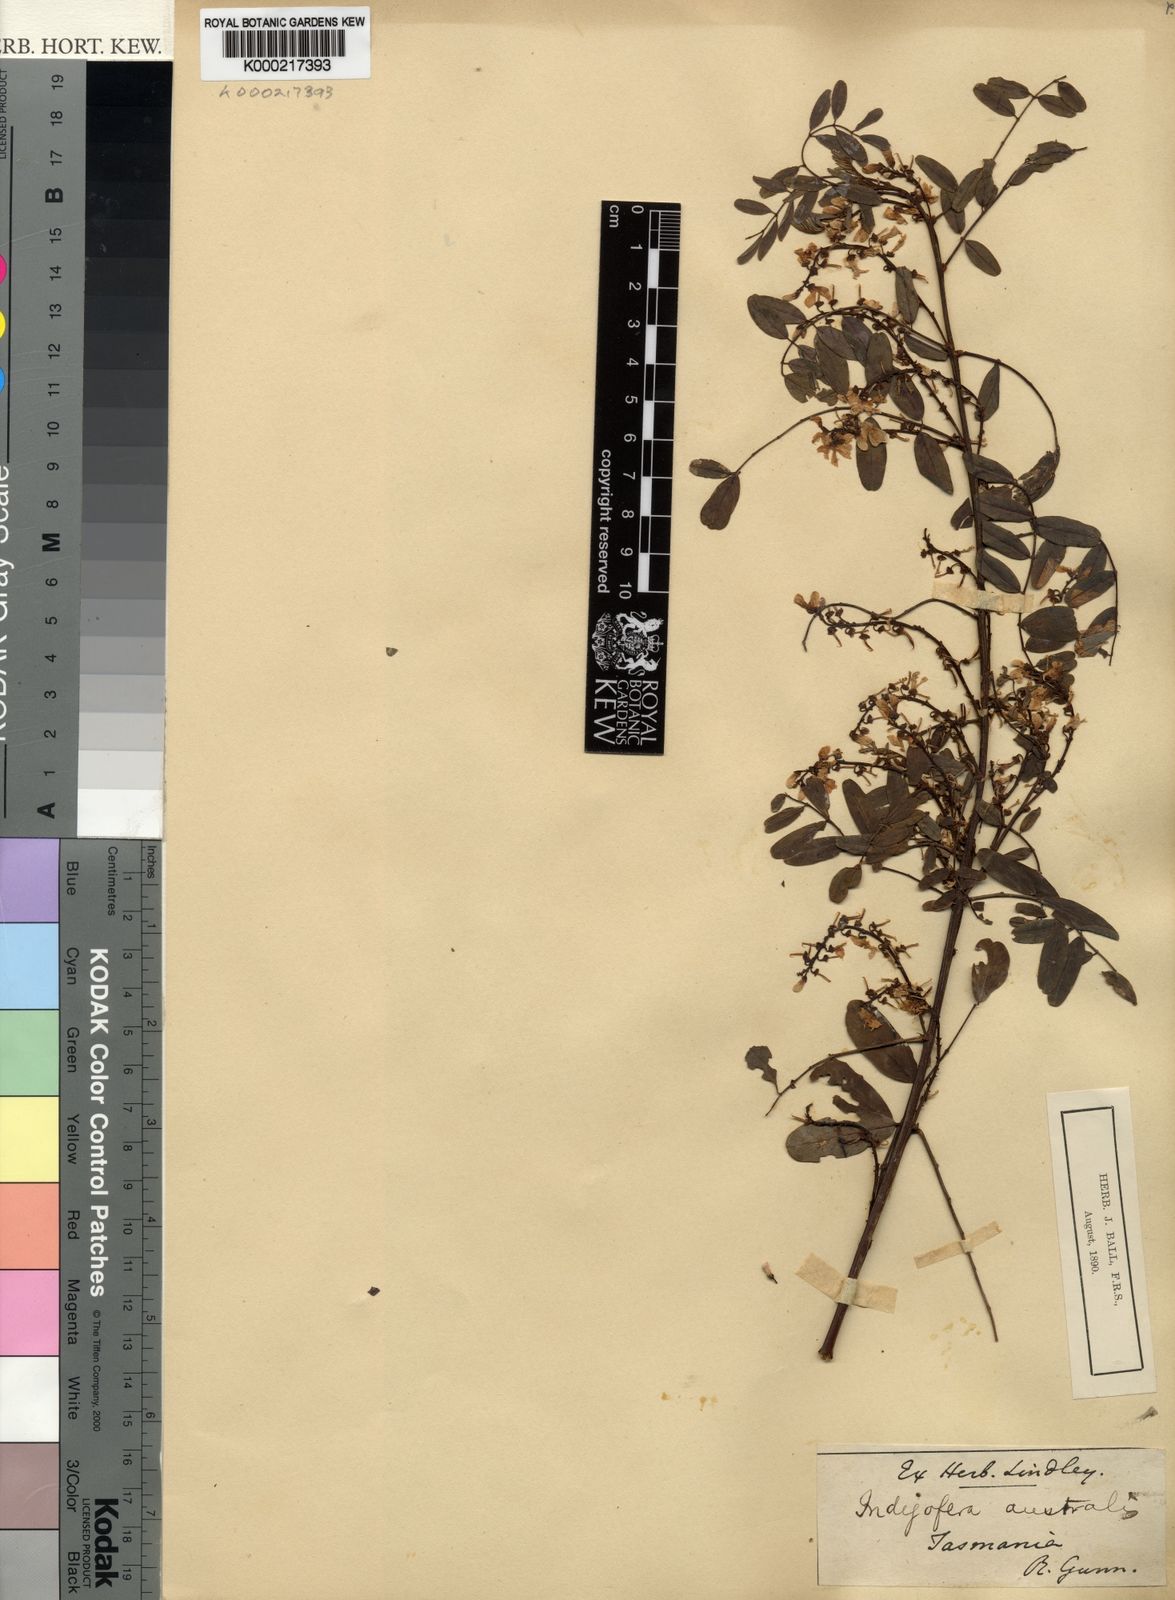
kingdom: Plantae
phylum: Tracheophyta
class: Magnoliopsida
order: Fabales
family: Fabaceae
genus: Indigofera
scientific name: Indigofera australis
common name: Australian indigo
